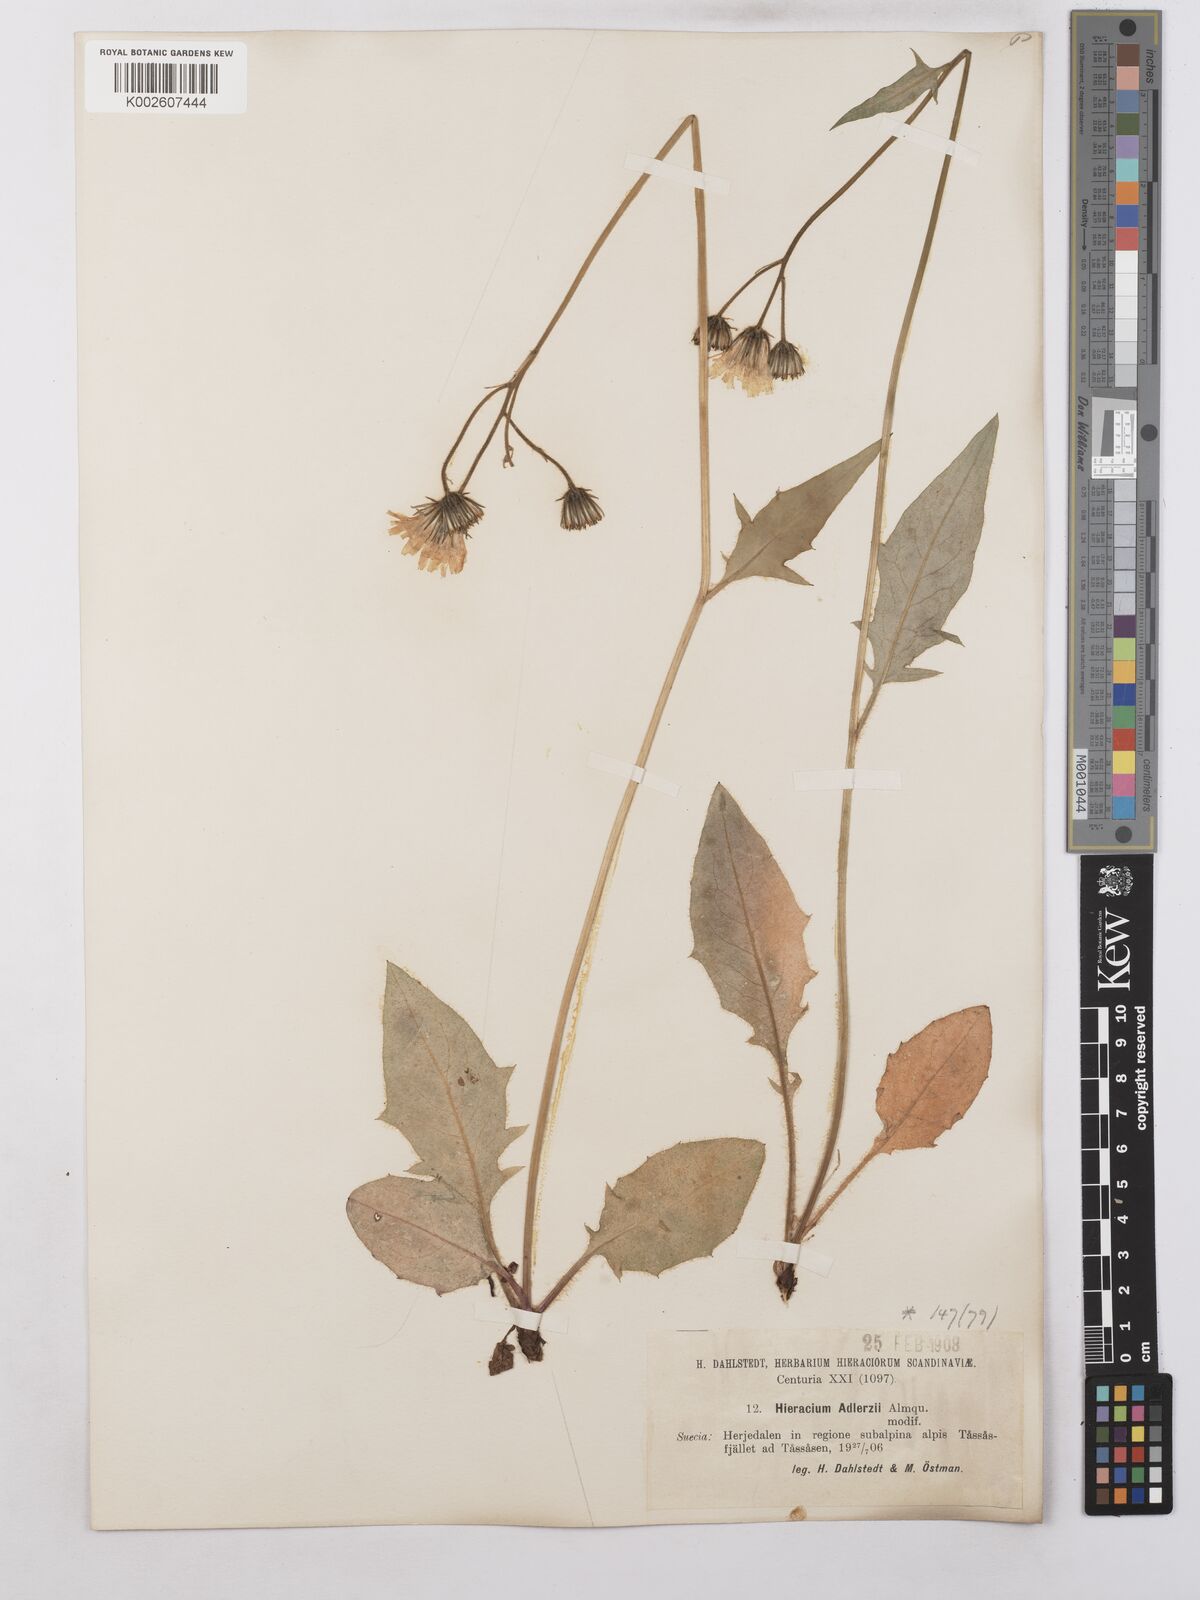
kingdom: Plantae
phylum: Tracheophyta
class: Magnoliopsida
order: Asterales
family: Asteraceae
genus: Hieracium
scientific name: Hieracium caesium
